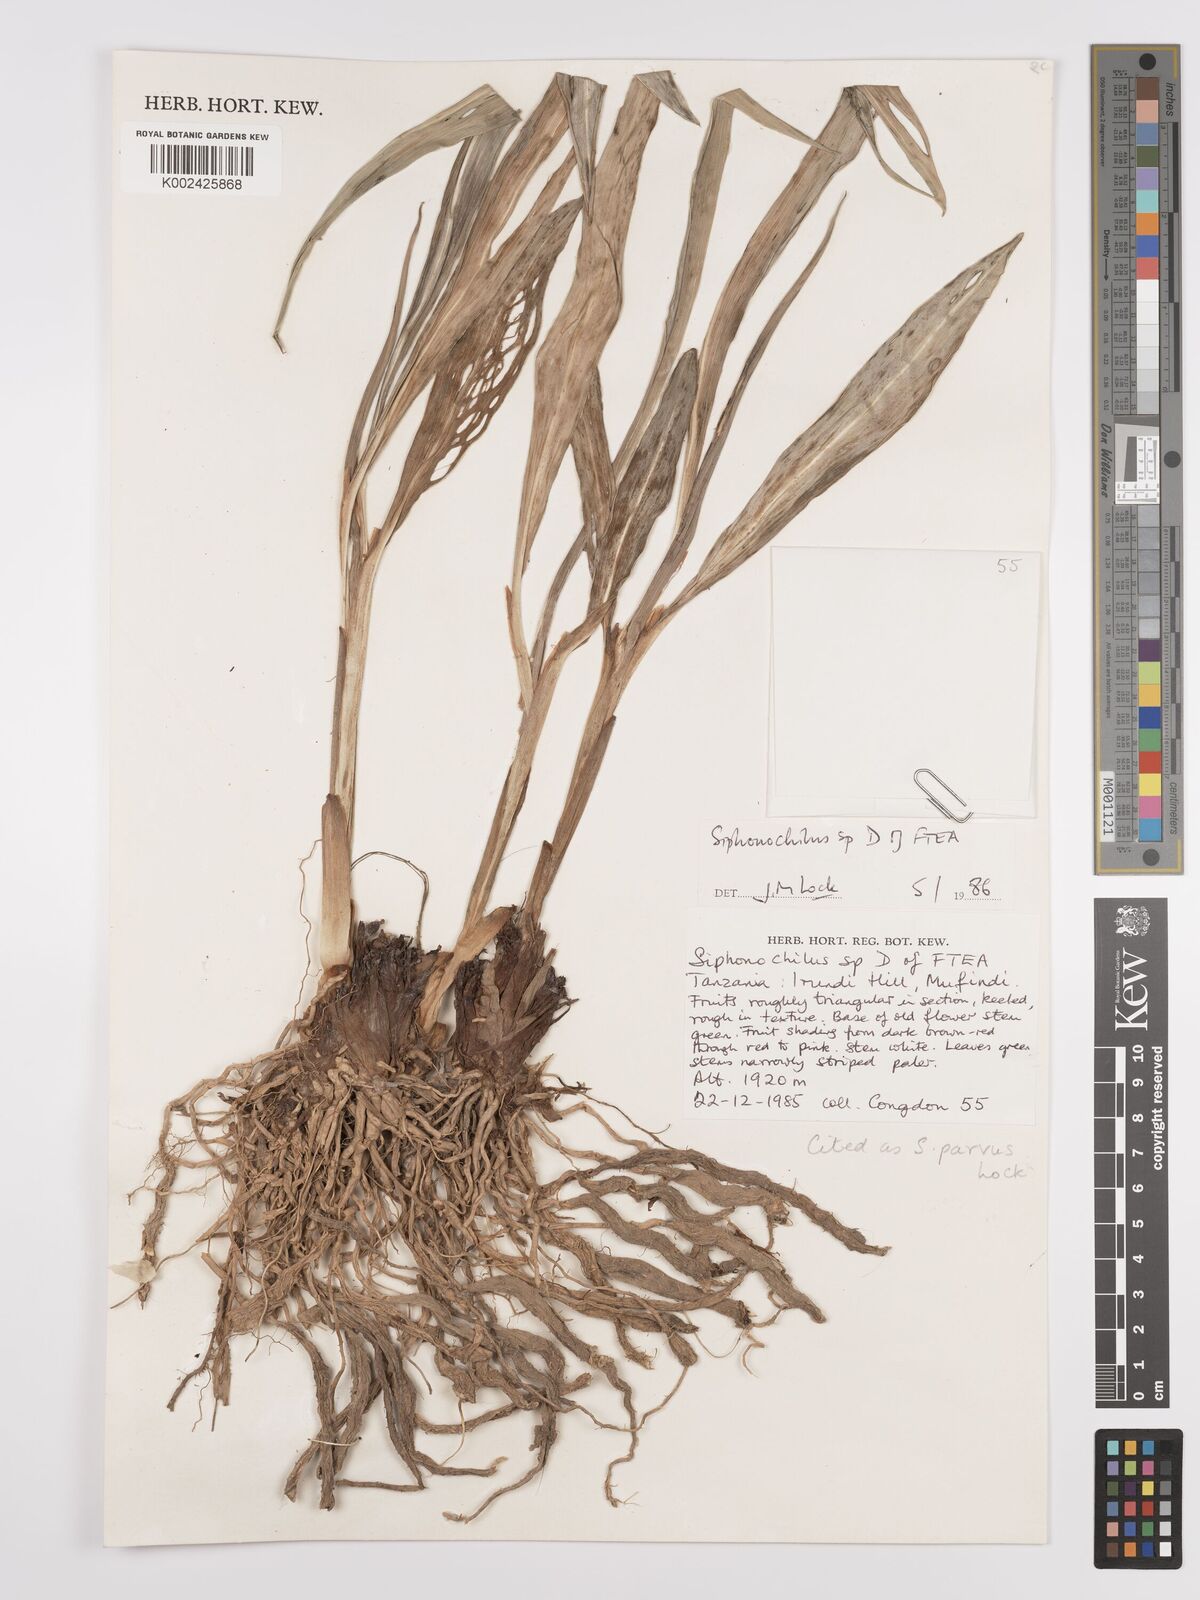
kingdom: Plantae
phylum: Tracheophyta
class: Liliopsida
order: Zingiberales
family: Zingiberaceae
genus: Siphonochilus
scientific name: Siphonochilus parvus
